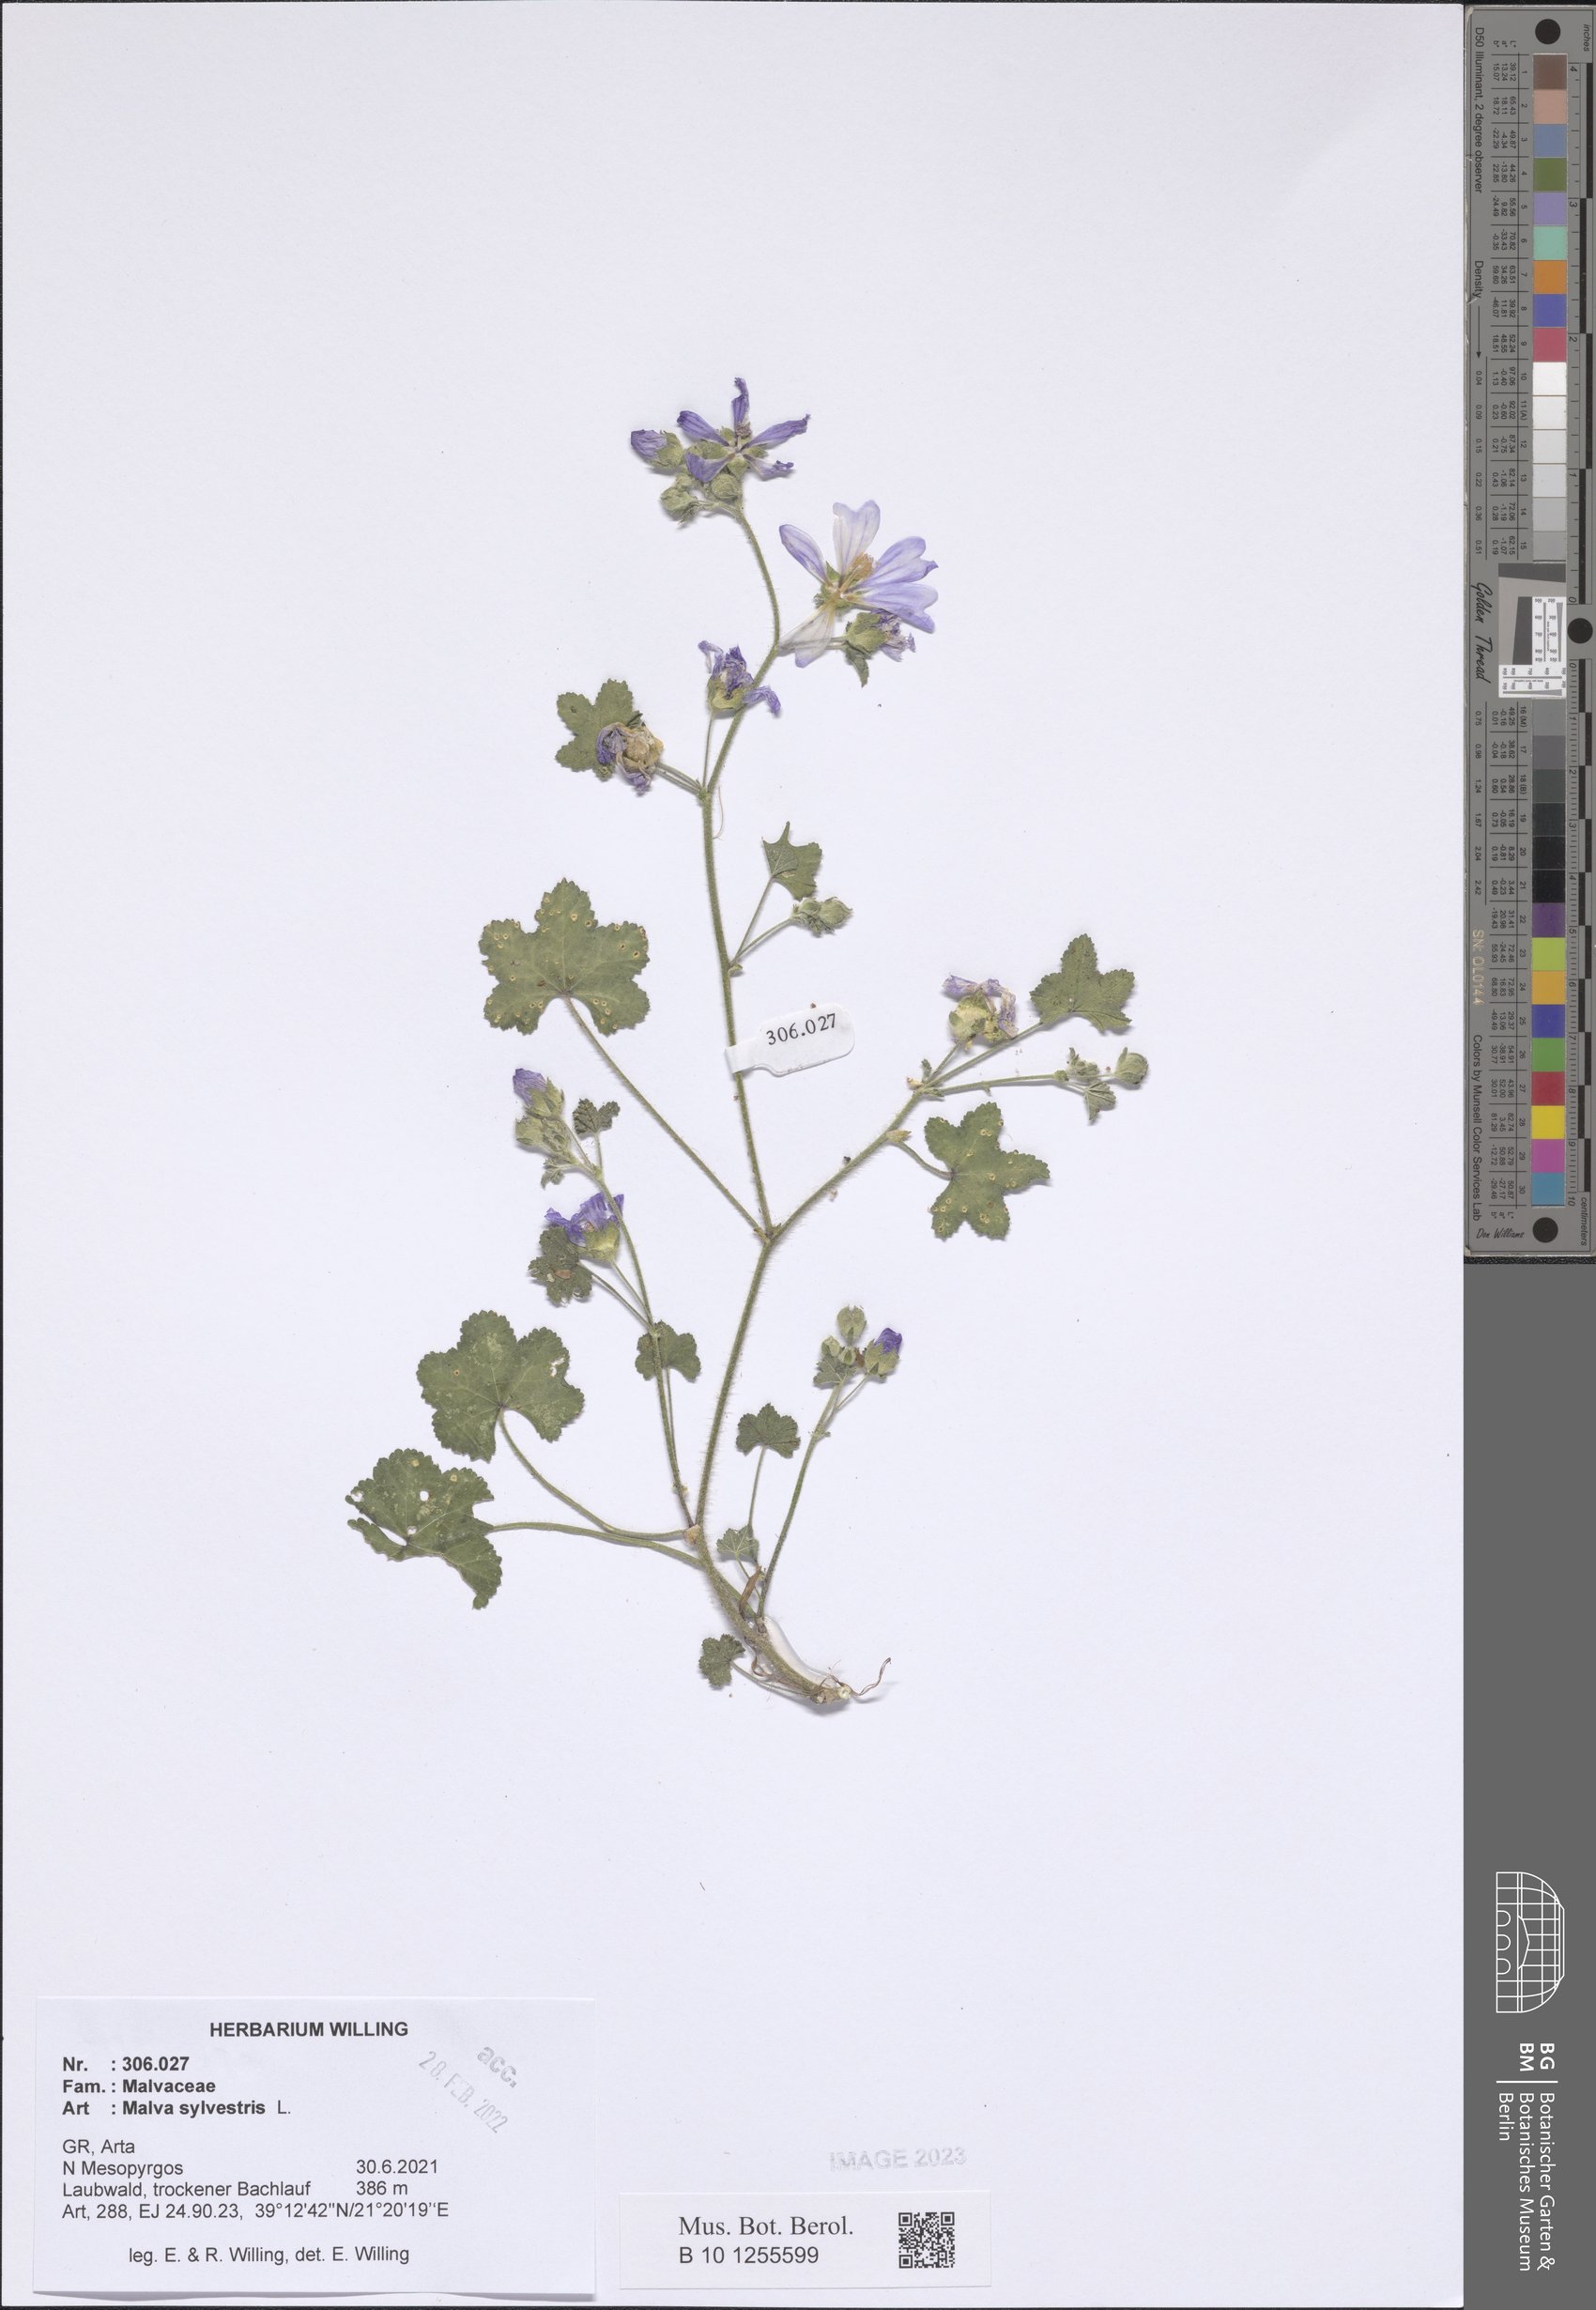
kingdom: Plantae
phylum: Tracheophyta
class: Magnoliopsida
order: Malvales
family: Malvaceae
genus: Malva
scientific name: Malva sylvestris
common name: Common mallow
